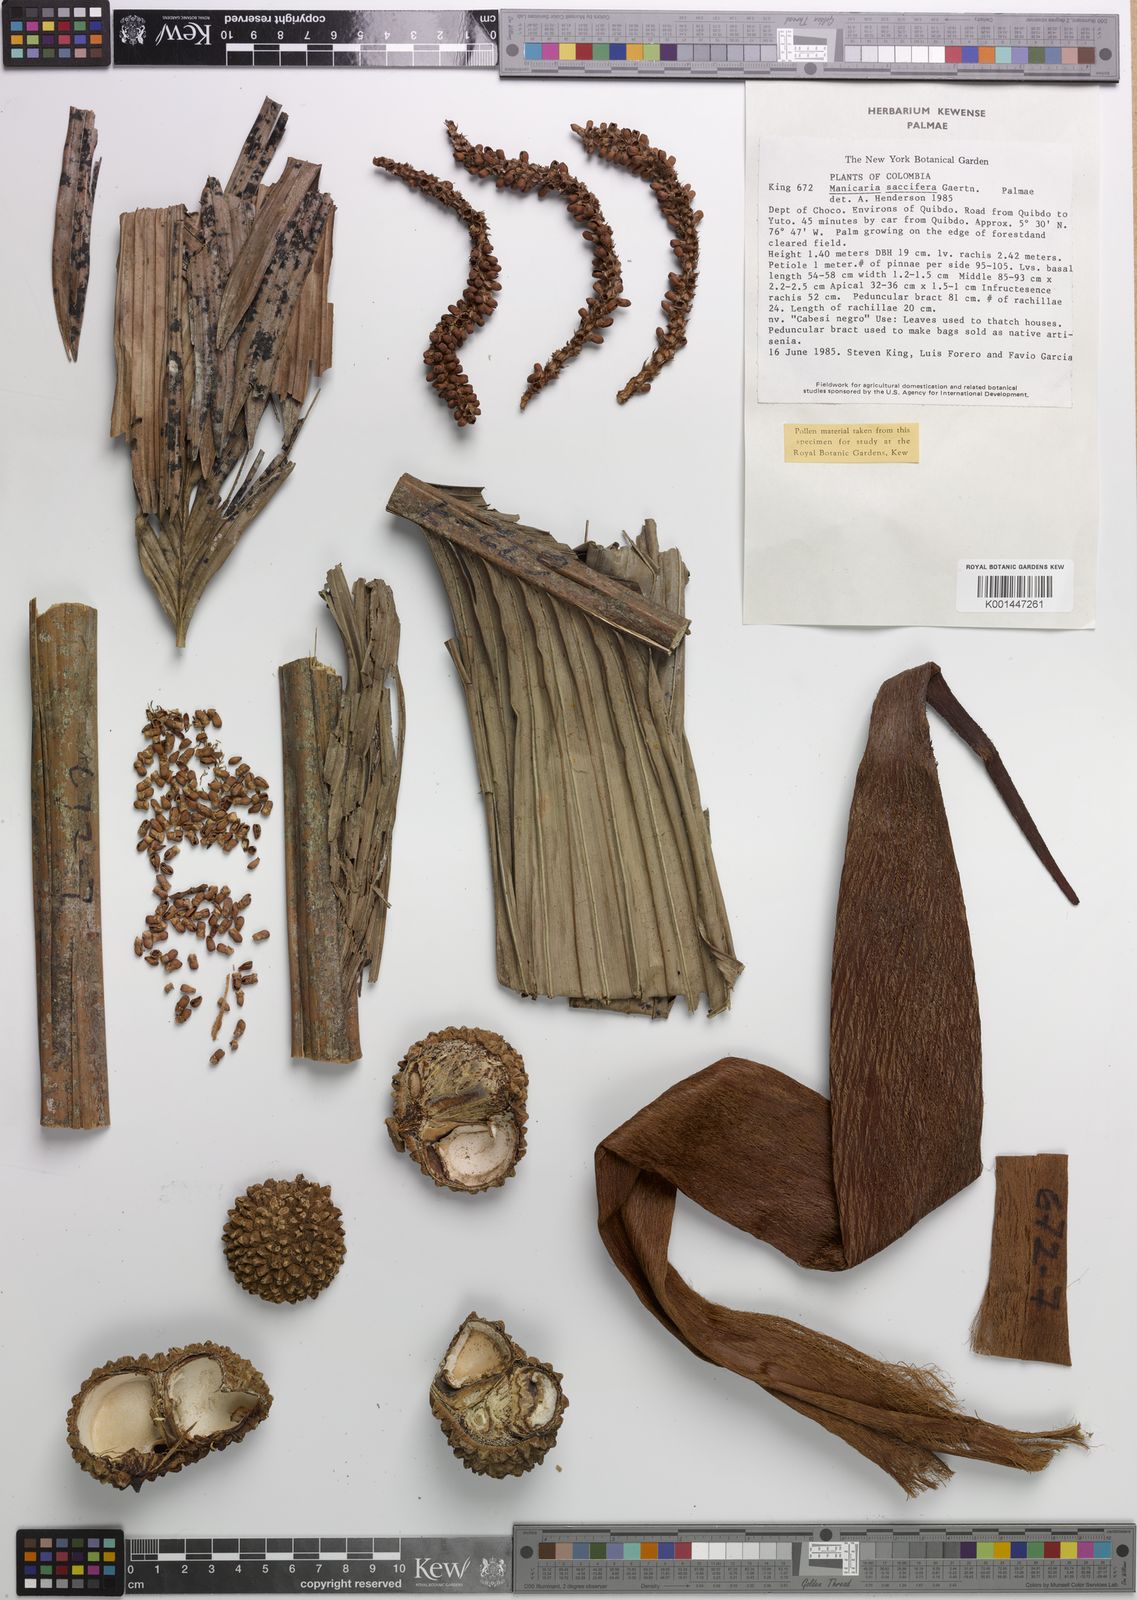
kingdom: Plantae
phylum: Tracheophyta
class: Liliopsida
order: Arecales
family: Arecaceae
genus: Manicaria
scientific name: Manicaria saccifera
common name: Sea coconut
